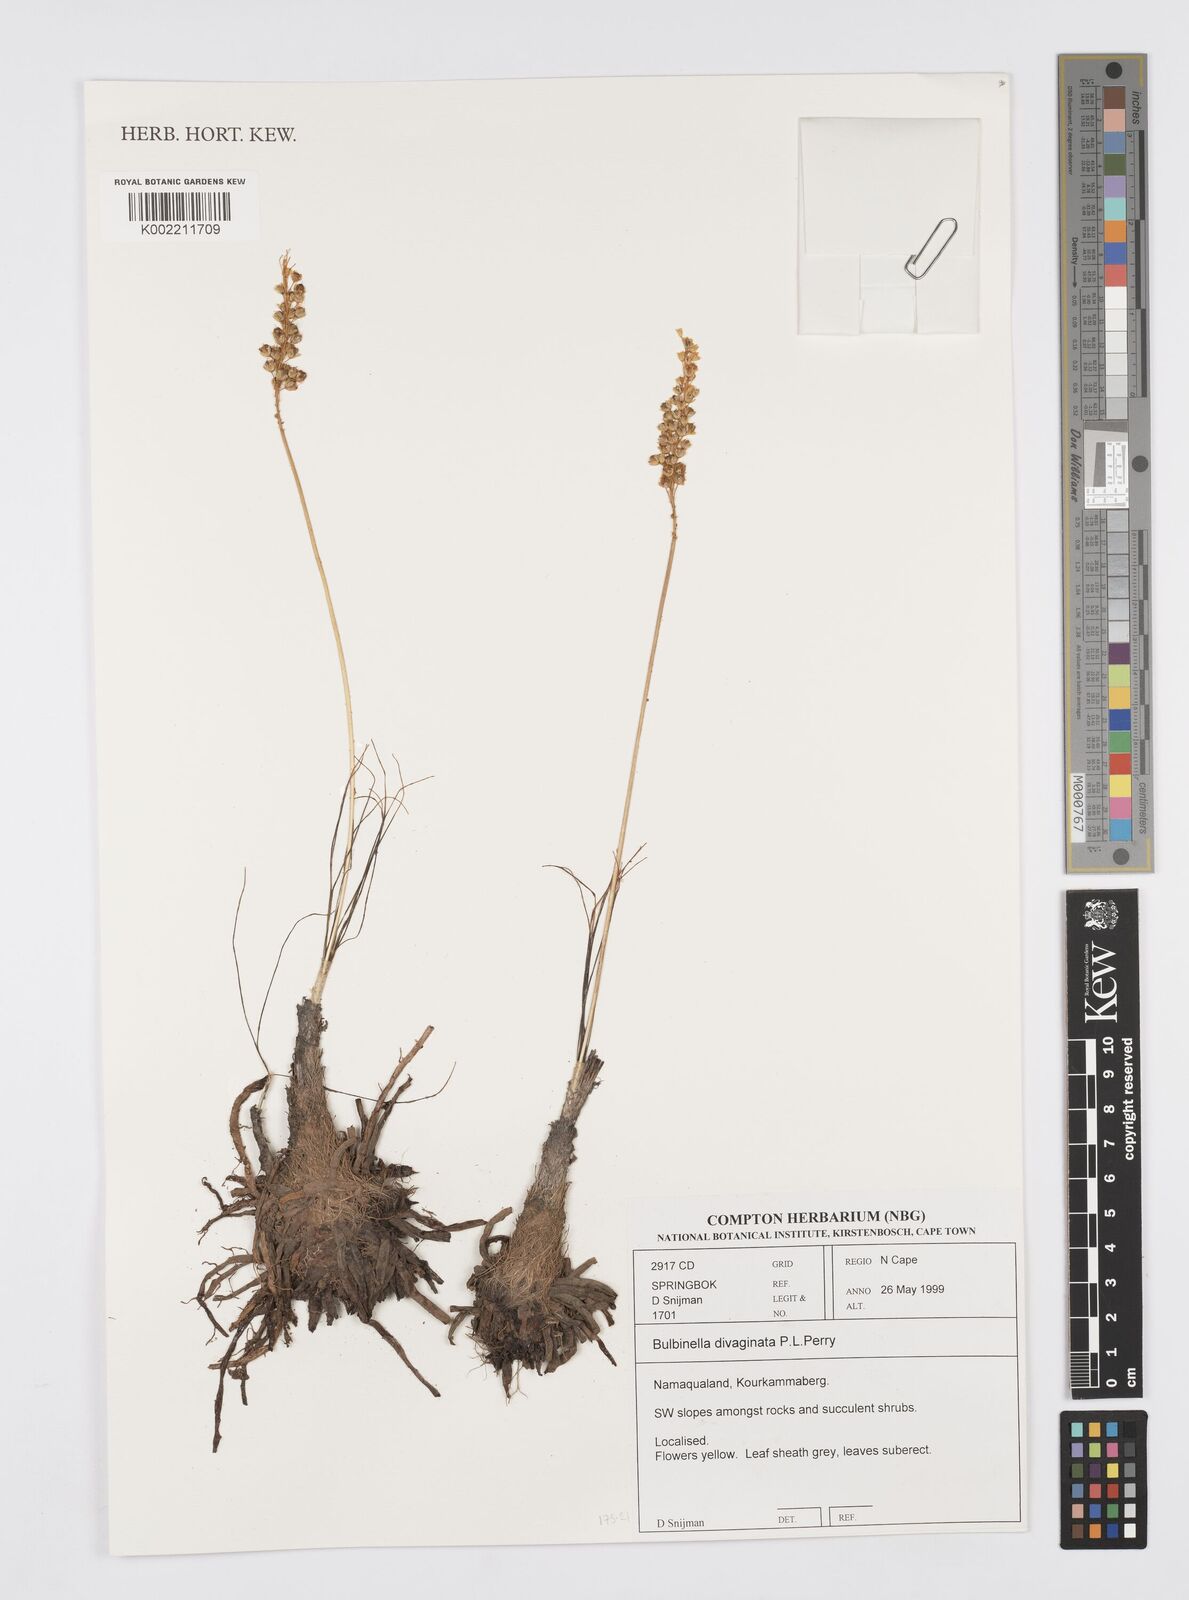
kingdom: Plantae
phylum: Tracheophyta
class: Liliopsida
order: Asparagales
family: Asphodelaceae
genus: Bulbinella
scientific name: Bulbinella divaginata
